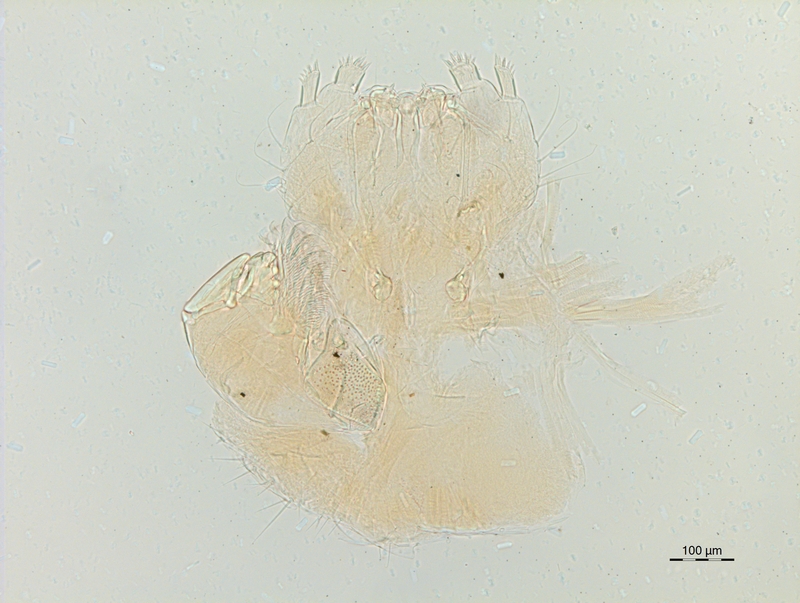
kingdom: Animalia
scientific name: Animalia
